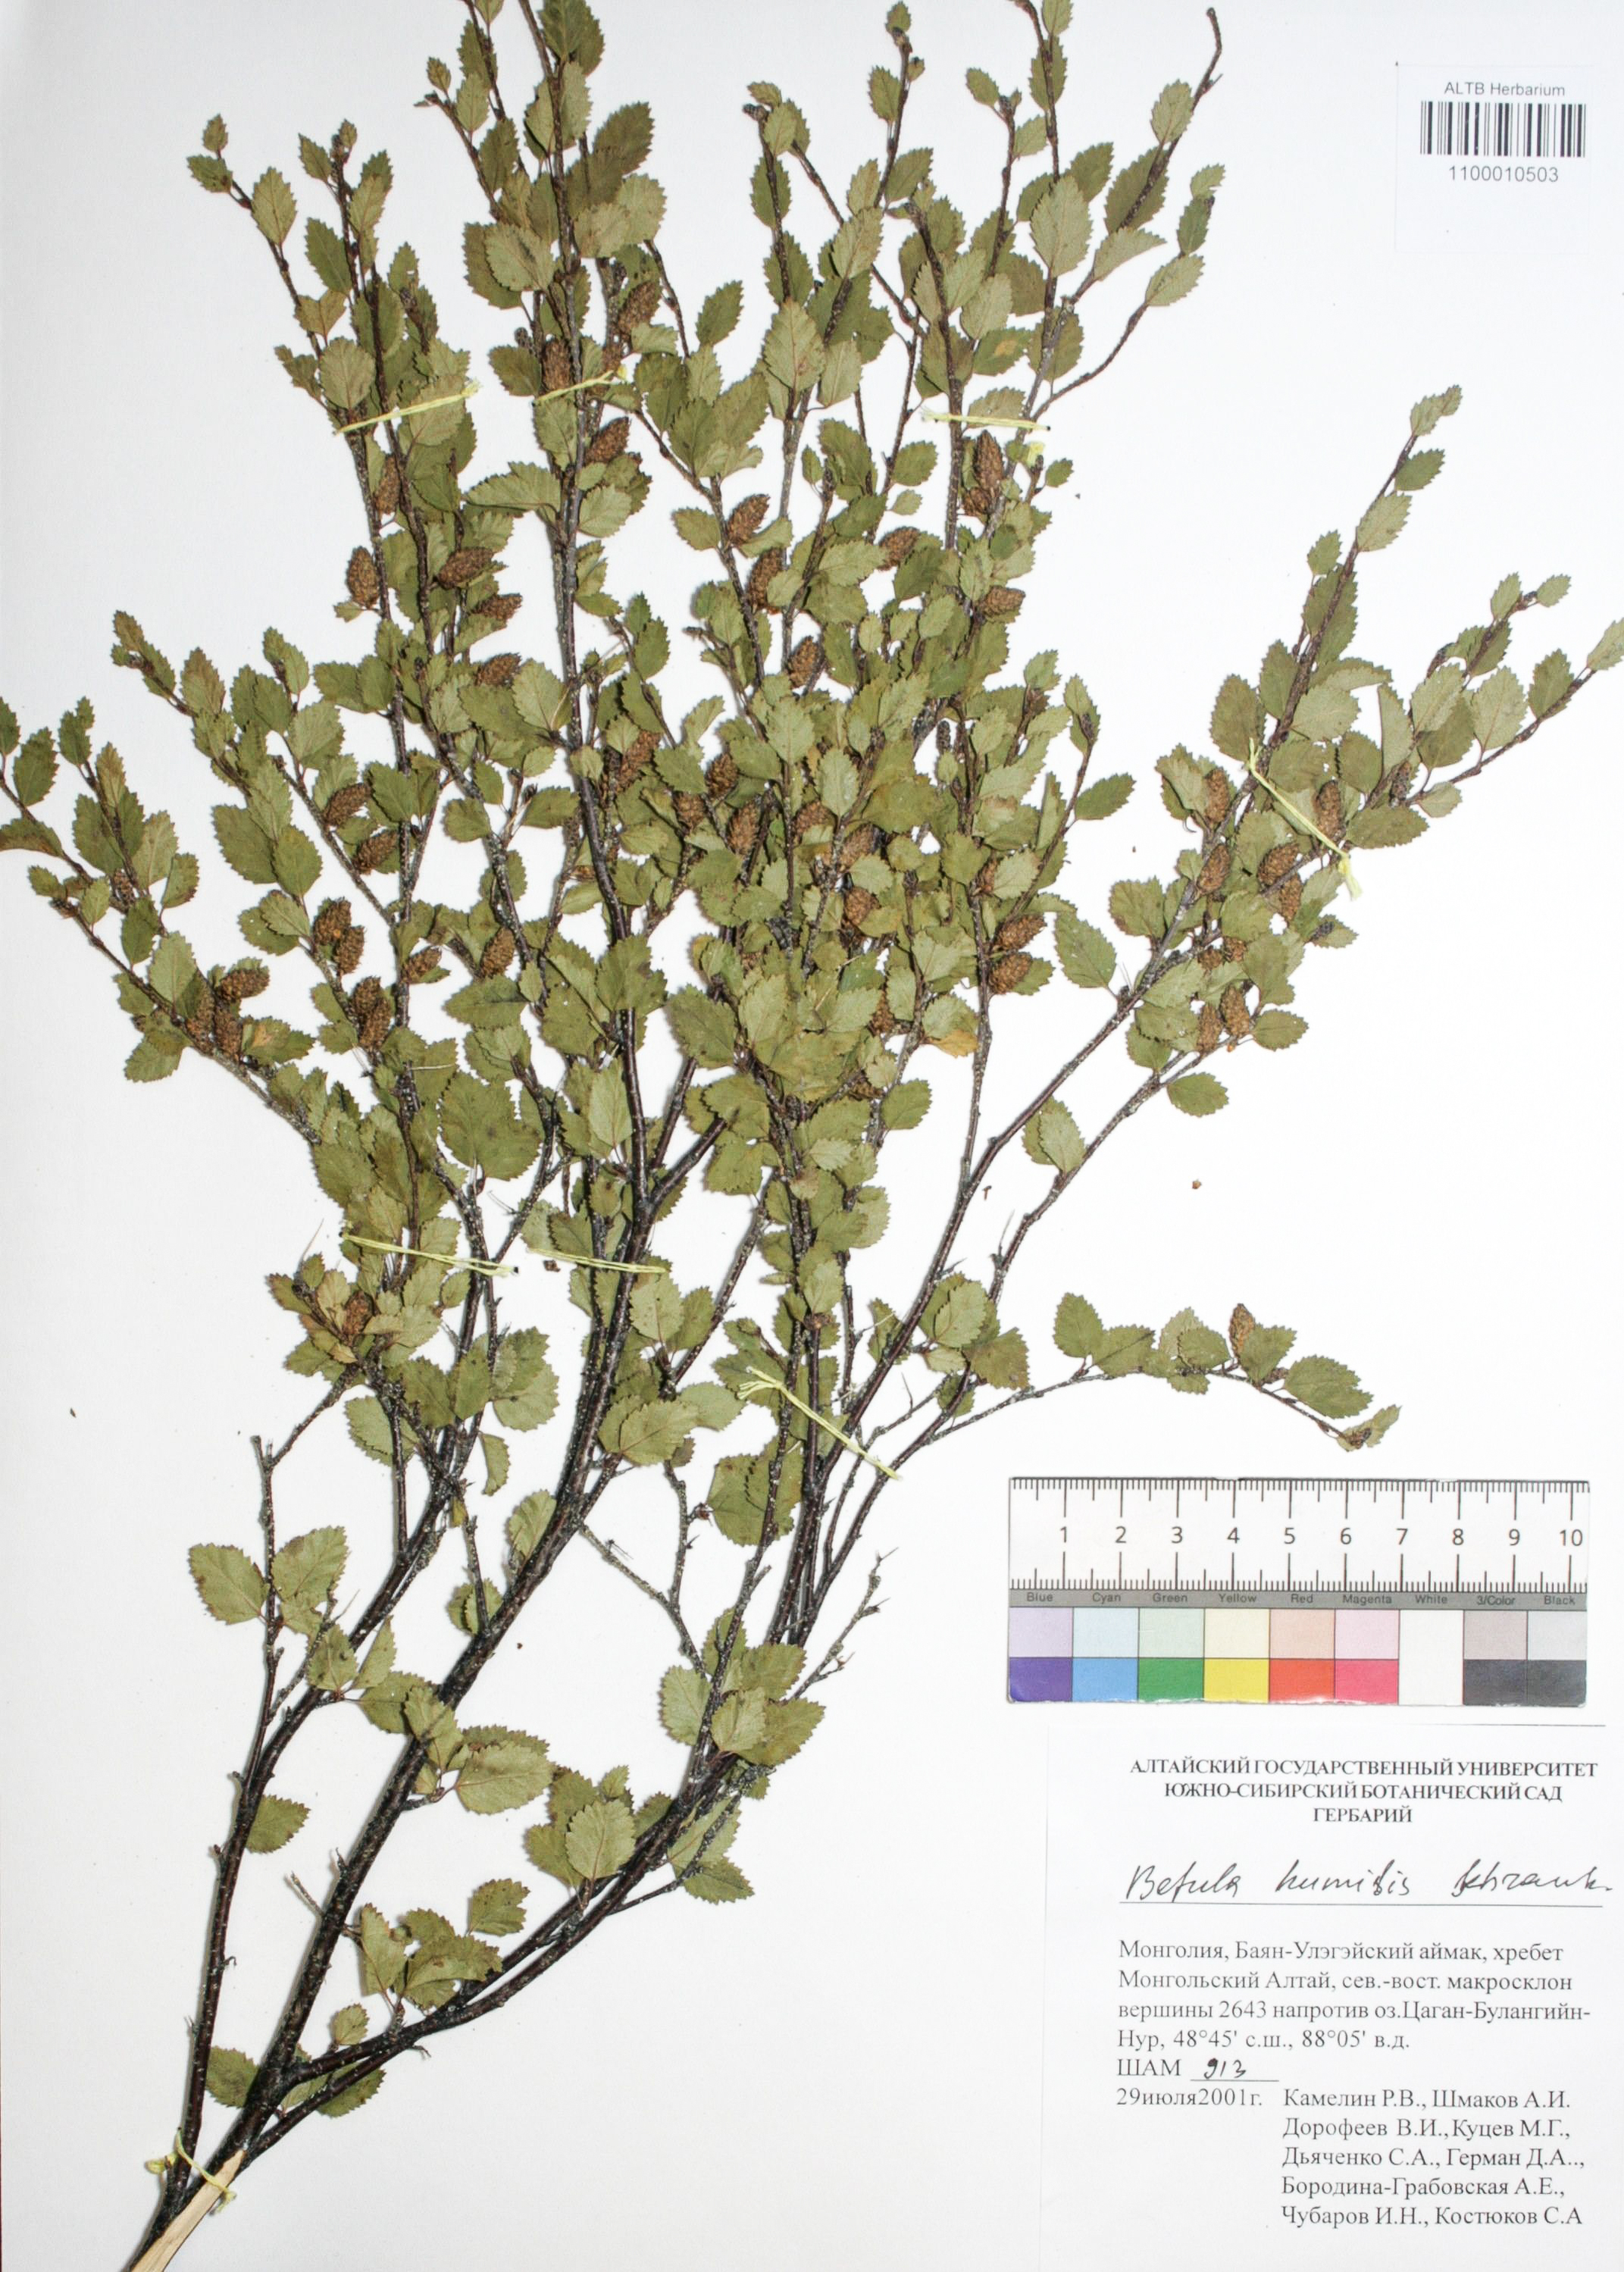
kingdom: Plantae
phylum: Tracheophyta
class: Magnoliopsida
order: Fagales
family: Betulaceae
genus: Betula
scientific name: Betula humilis
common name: Shrubby birch
